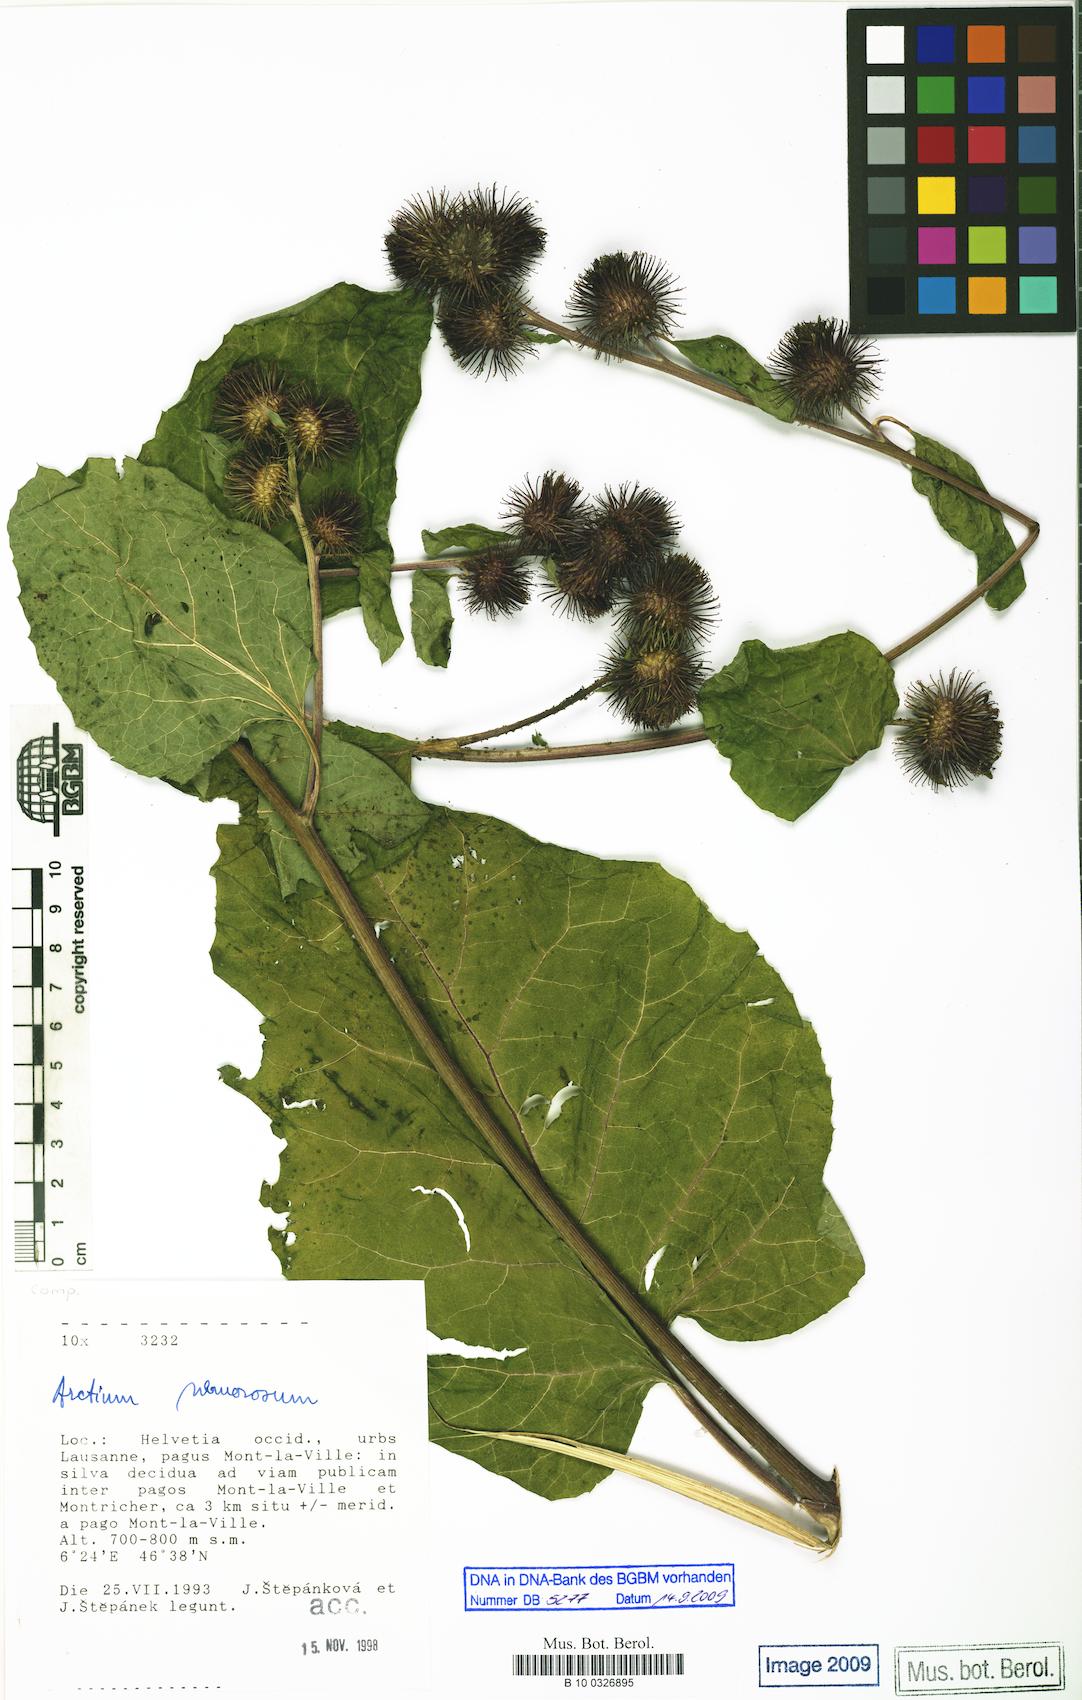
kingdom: Plantae
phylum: Tracheophyta
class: Magnoliopsida
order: Asterales
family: Asteraceae
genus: Arctium
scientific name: Arctium nemorosum
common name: Wood burdock
